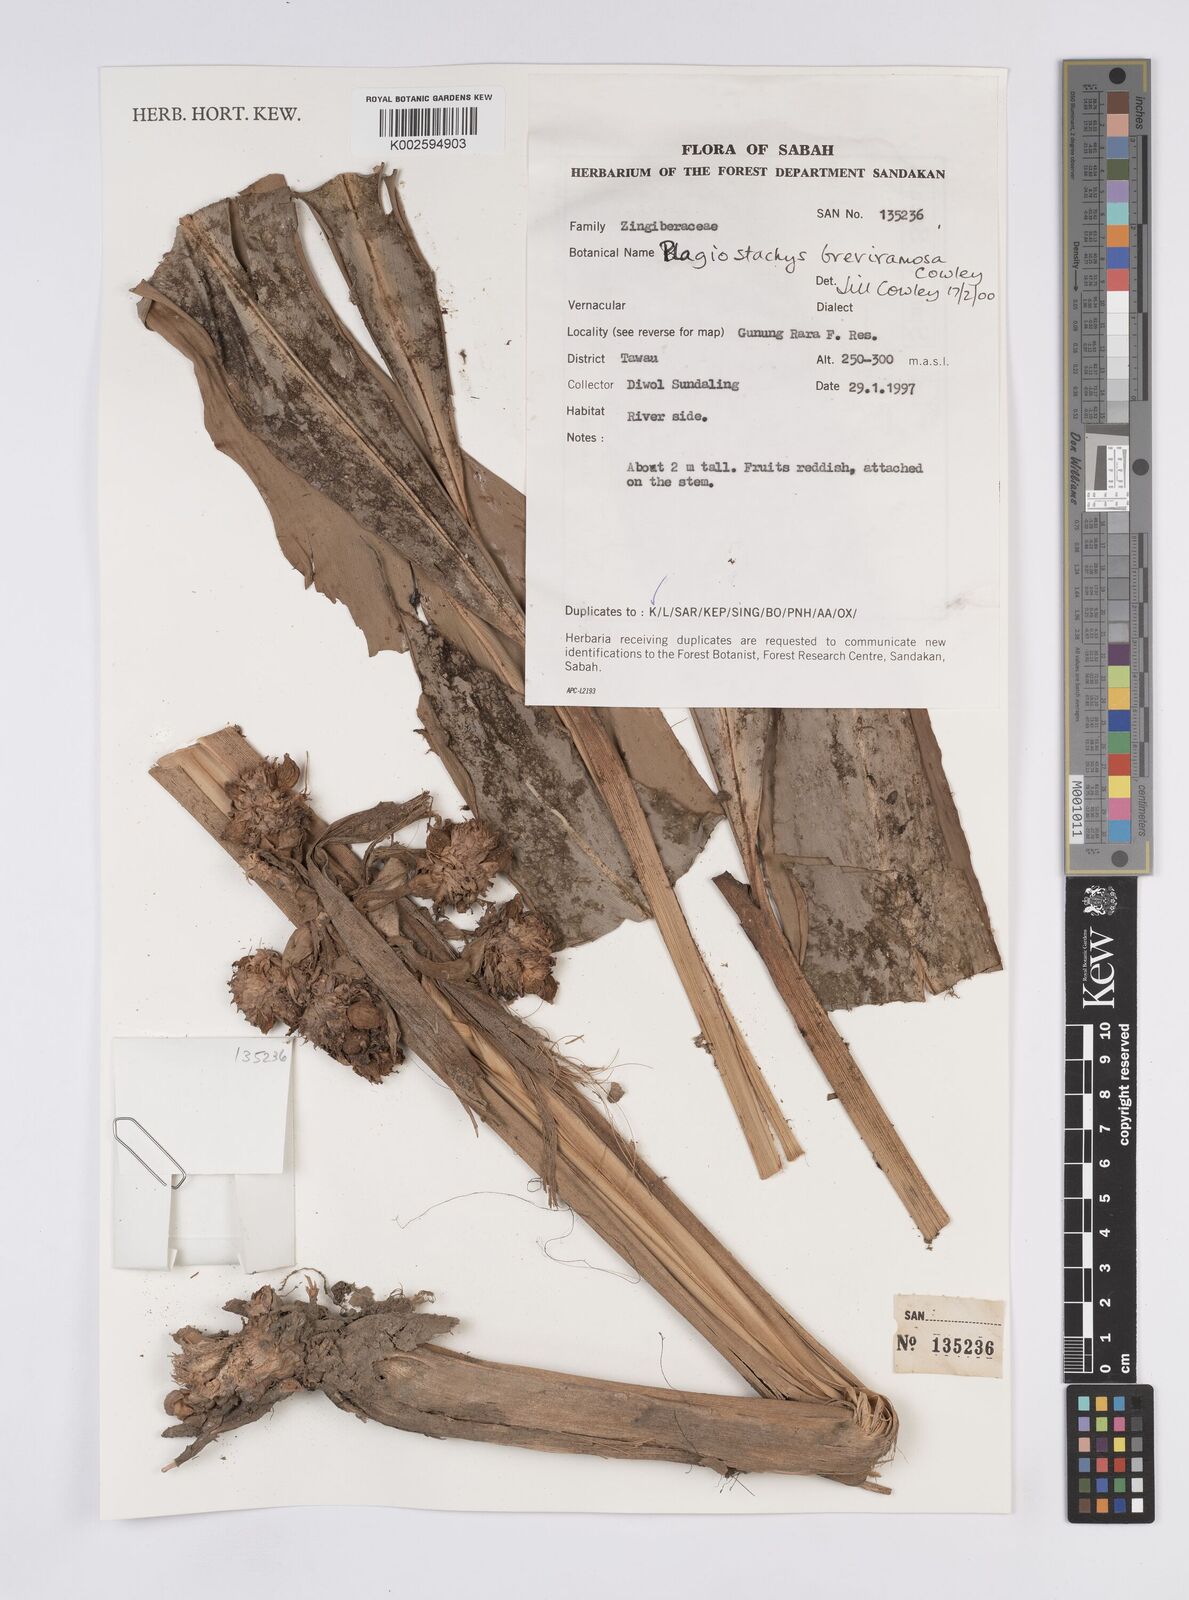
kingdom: Plantae
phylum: Tracheophyta
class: Liliopsida
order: Zingiberales
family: Zingiberaceae
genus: Plagiostachys
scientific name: Plagiostachys breviramosa
